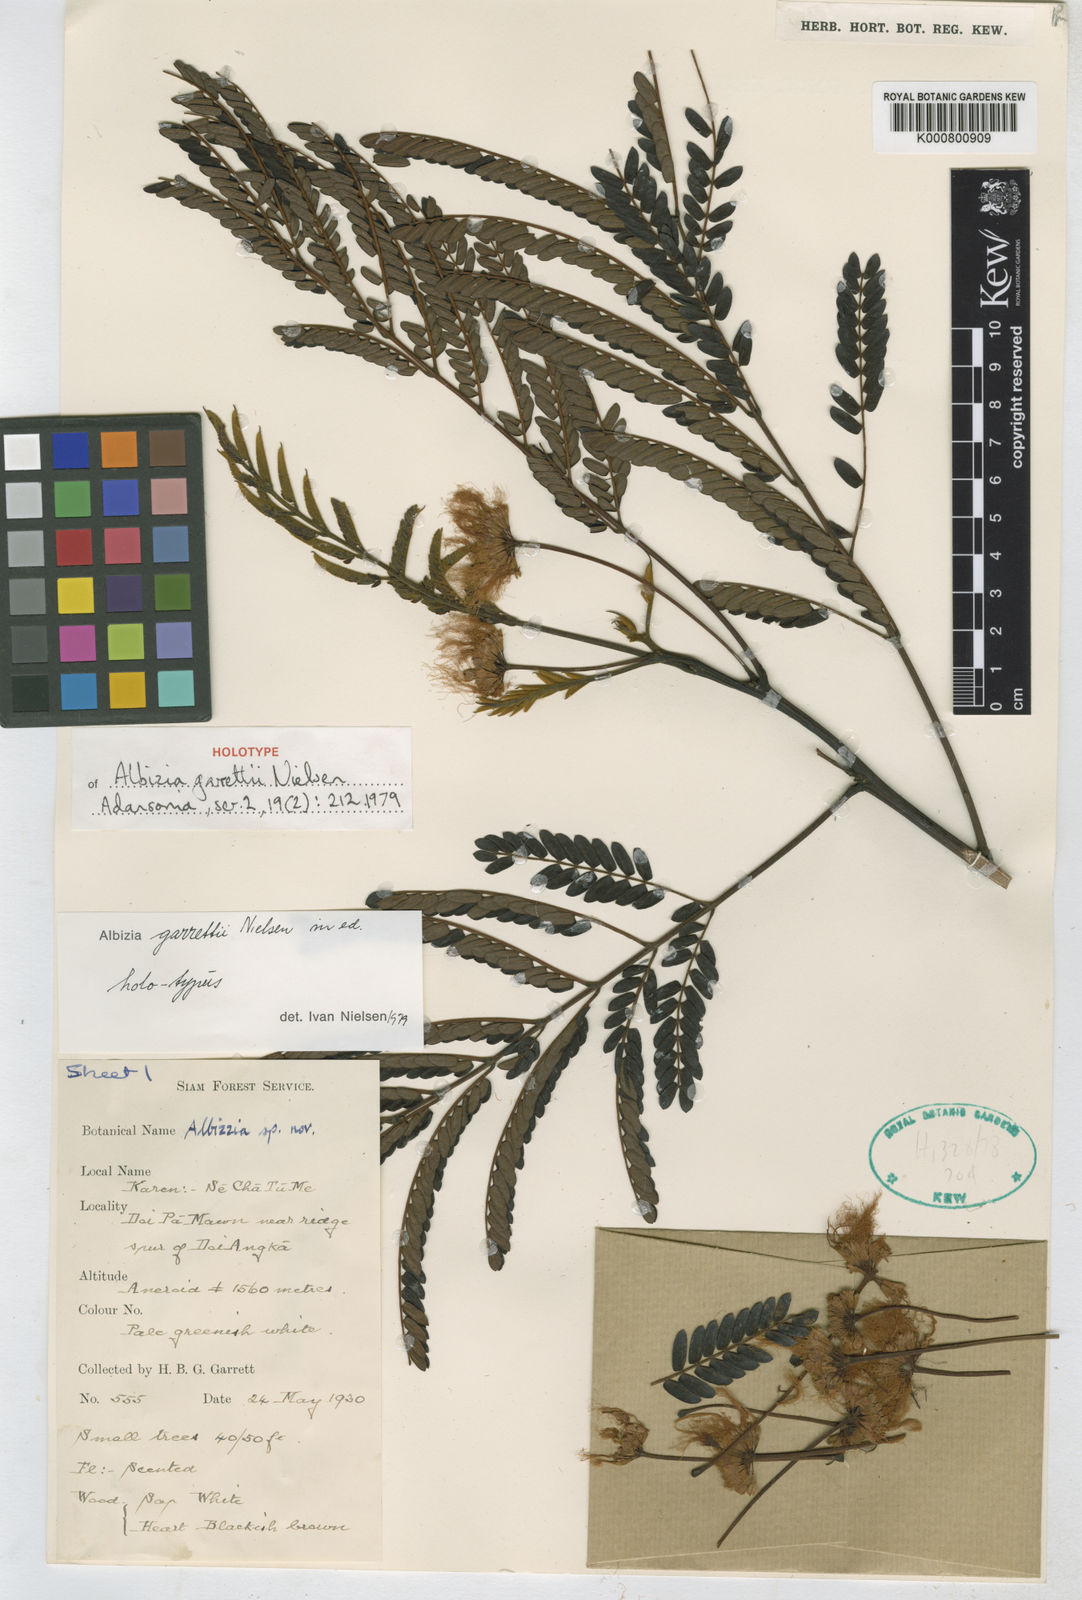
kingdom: Plantae
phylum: Tracheophyta
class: Magnoliopsida
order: Fabales
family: Fabaceae
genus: Albizia
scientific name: Albizia garrettii
